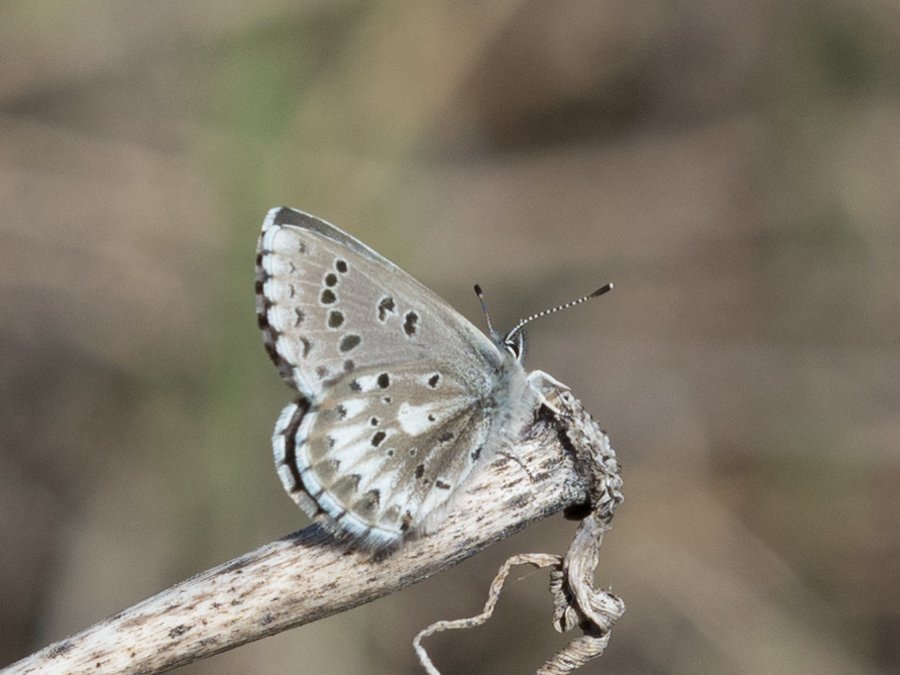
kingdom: Animalia
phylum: Arthropoda
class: Insecta
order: Lepidoptera
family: Lycaenidae
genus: Glaucopsyche
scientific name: Glaucopsyche piasus
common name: Arrowhead Blue
